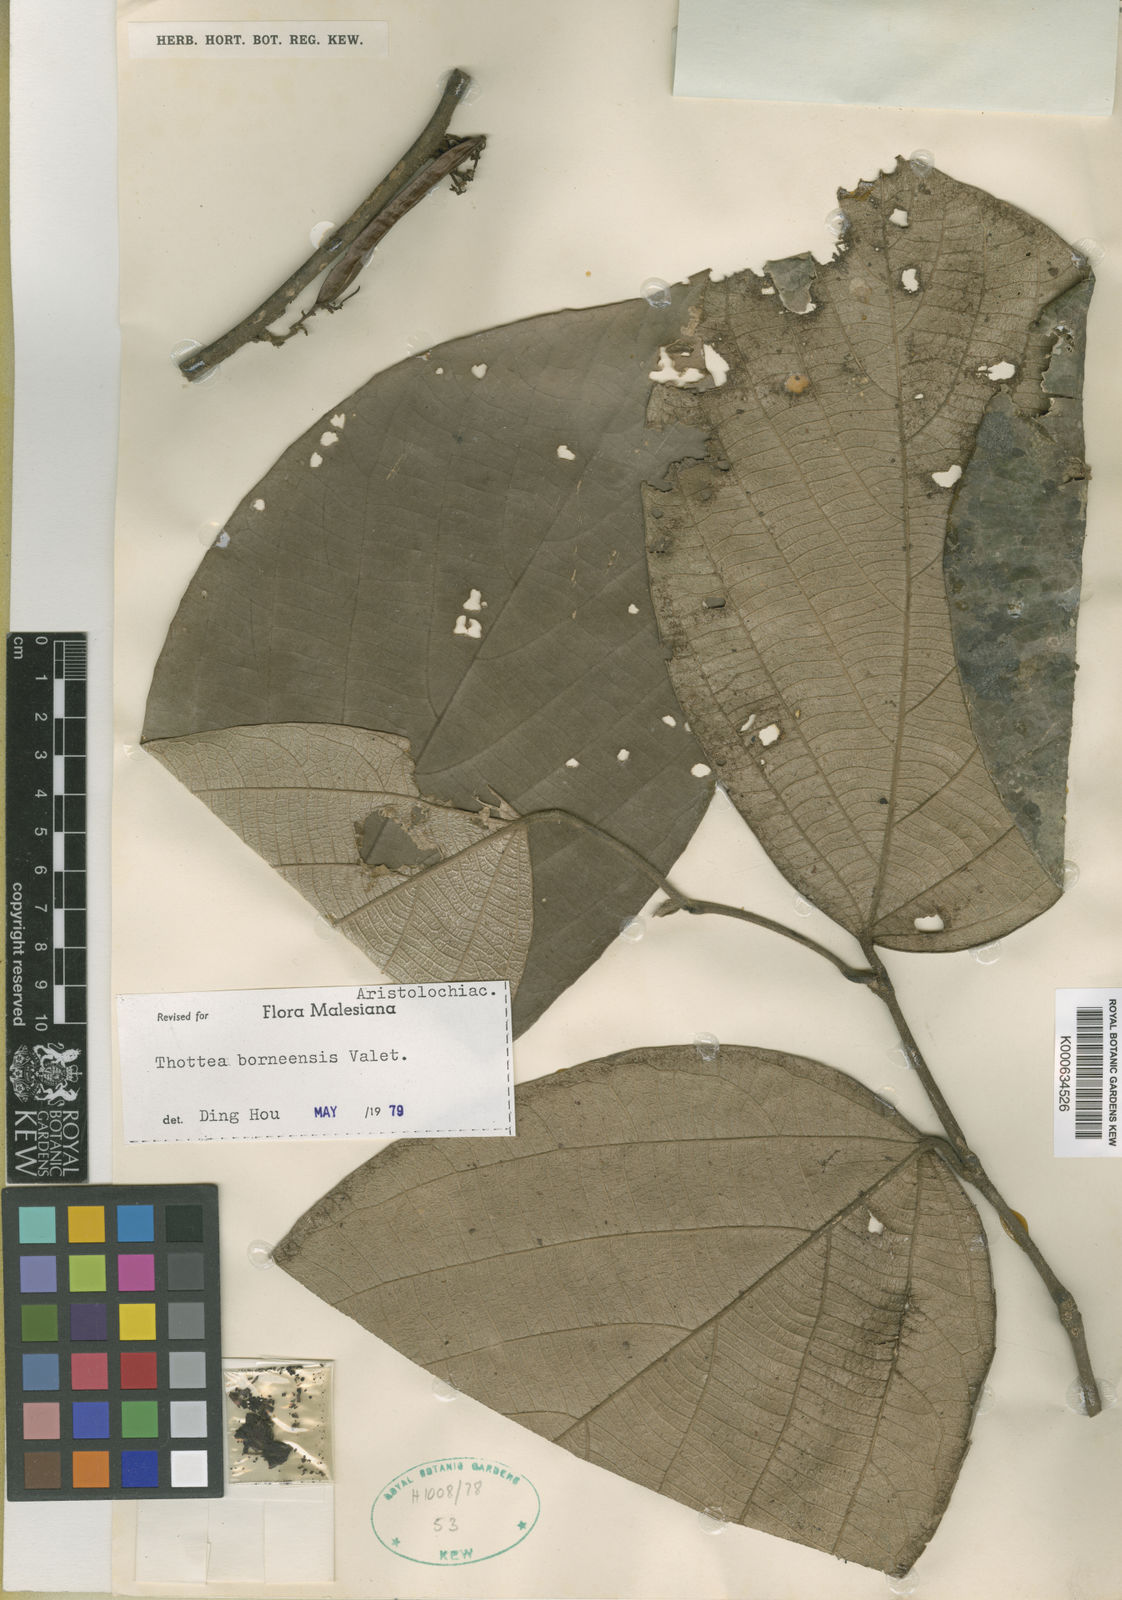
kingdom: Plantae
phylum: Tracheophyta
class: Magnoliopsida
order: Piperales
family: Aristolochiaceae
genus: Thottea
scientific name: Thottea borneensis
